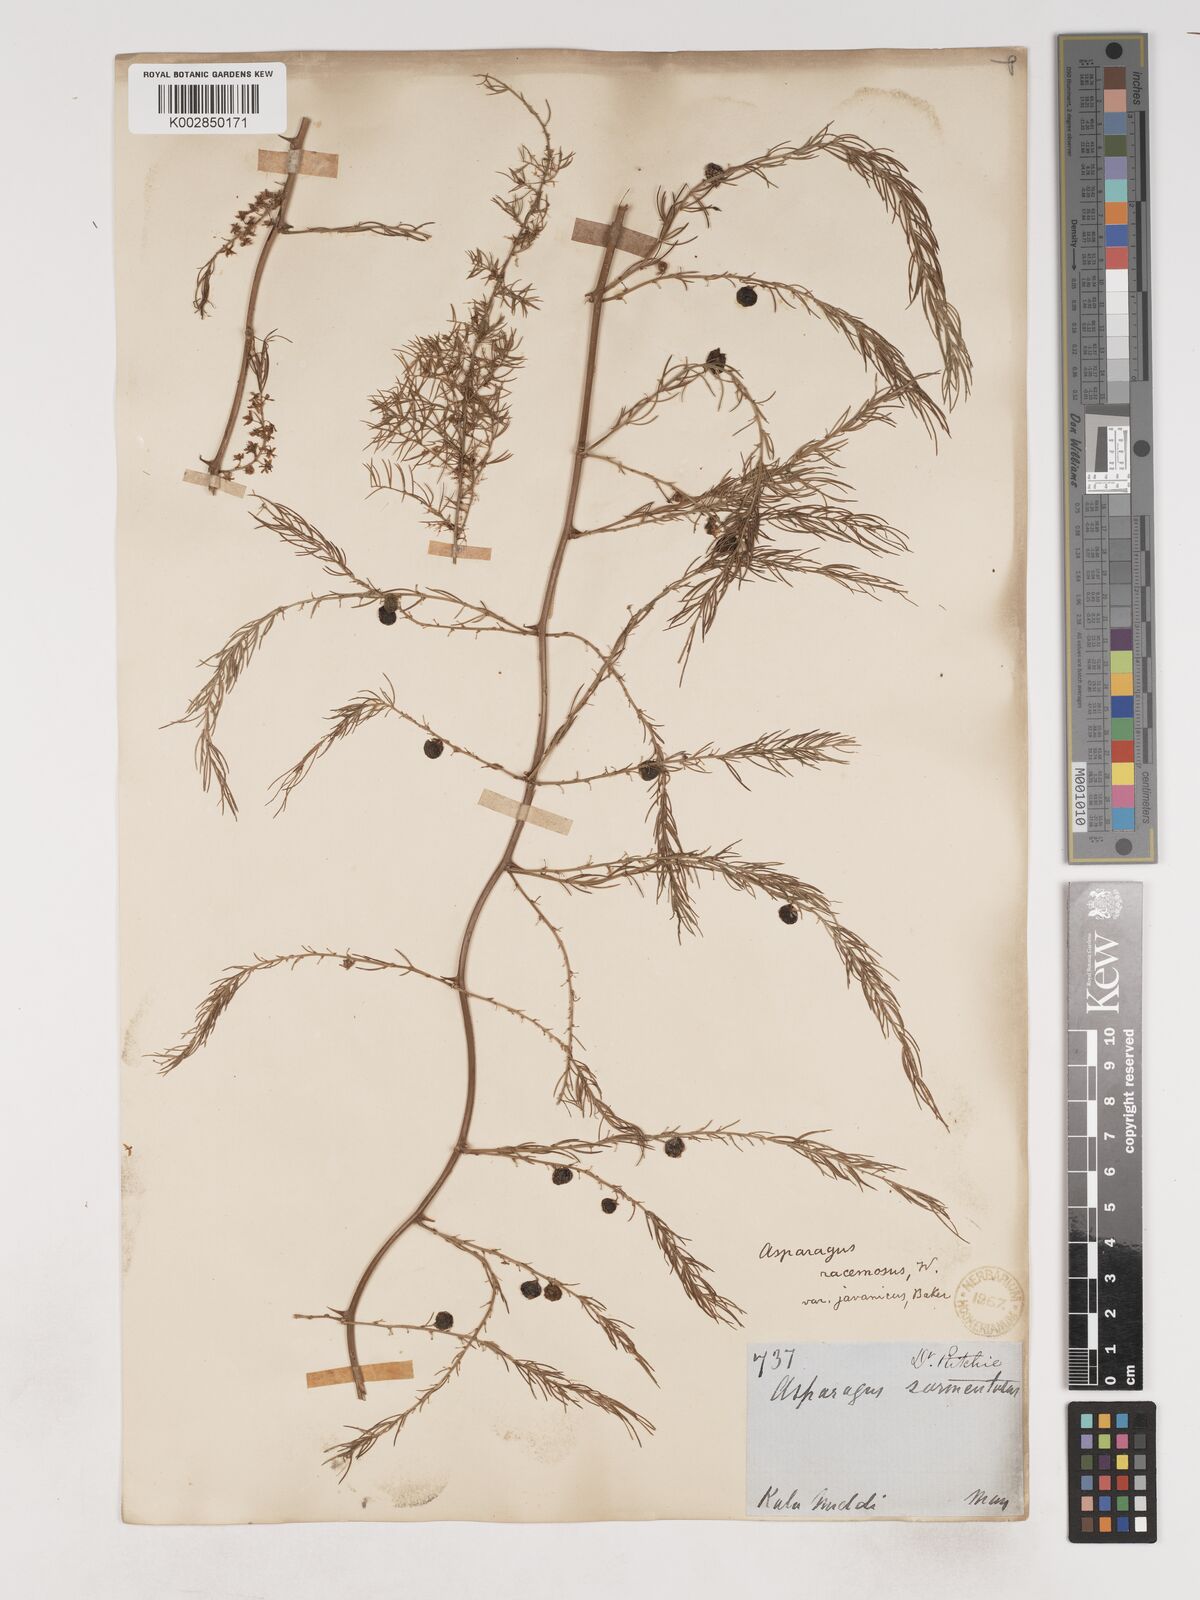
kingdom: Plantae
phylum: Tracheophyta
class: Liliopsida
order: Asparagales
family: Asparagaceae
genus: Asparagus
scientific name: Asparagus racemosus
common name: Asparagus-fern
